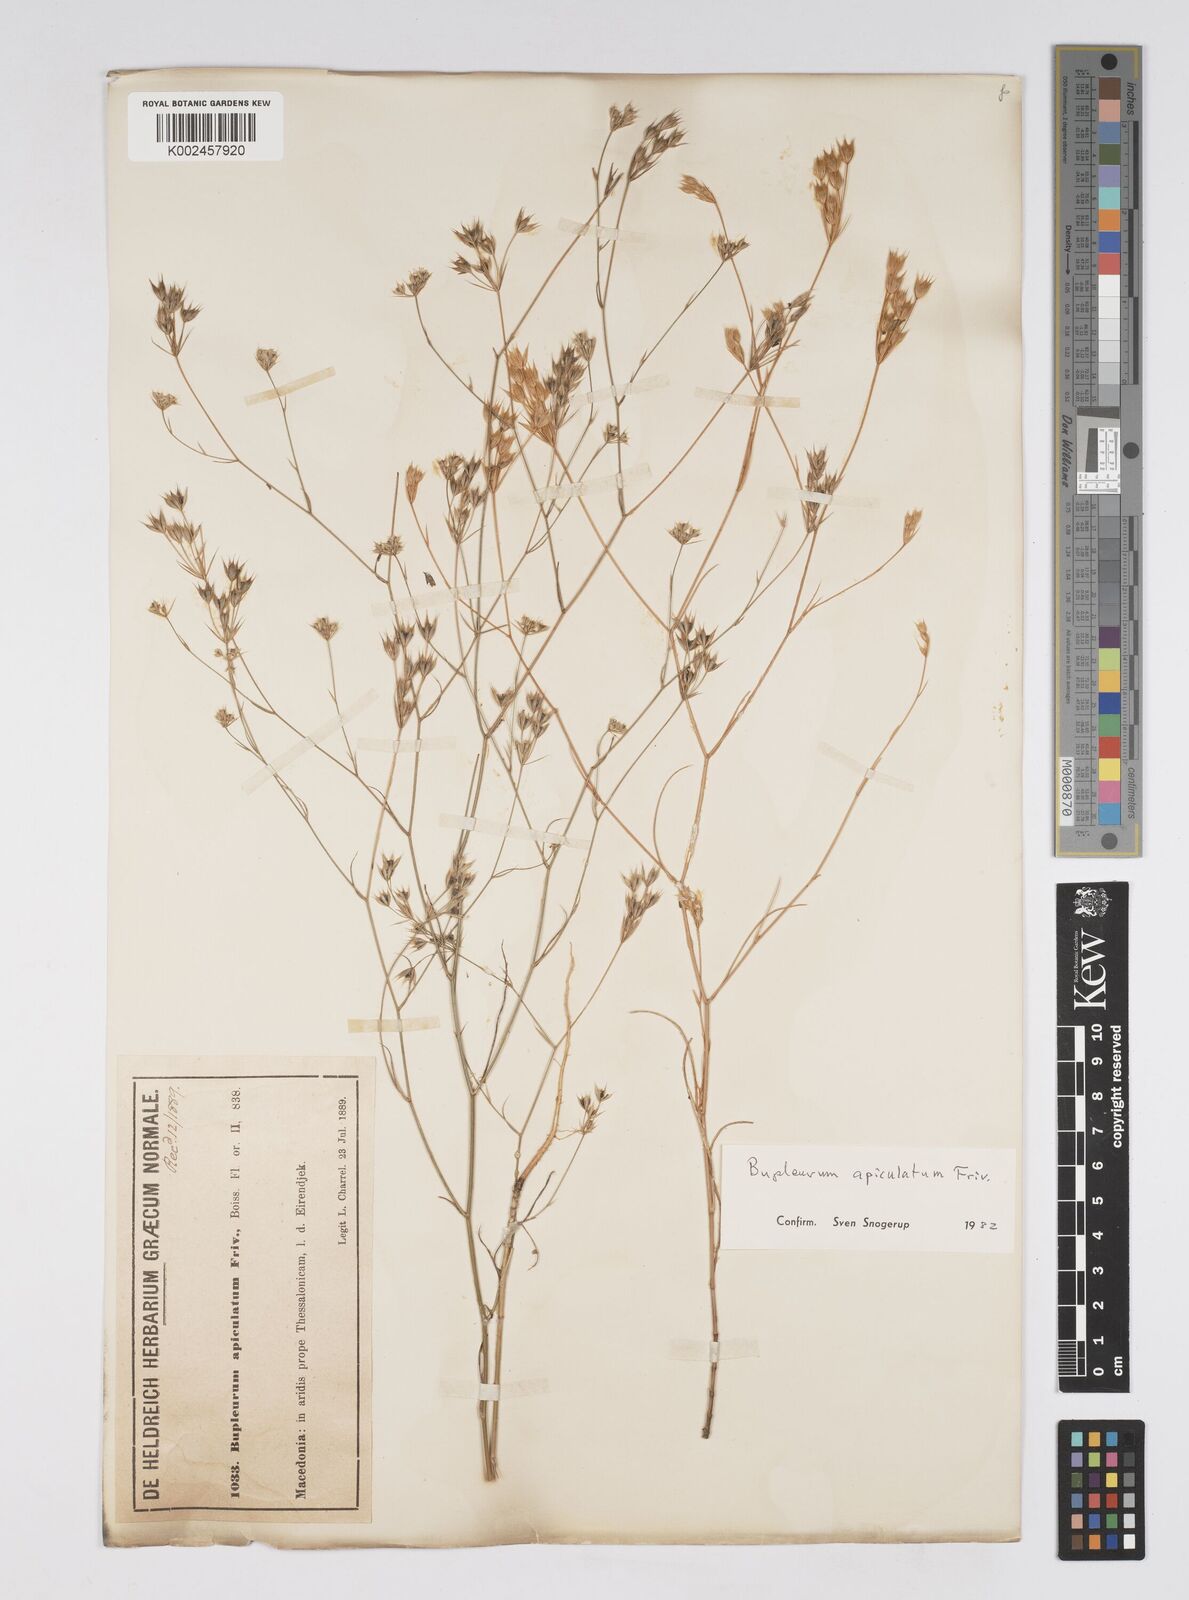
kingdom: Plantae
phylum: Tracheophyta
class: Magnoliopsida
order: Apiales
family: Apiaceae
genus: Bupleurum
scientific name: Bupleurum apiculatum
